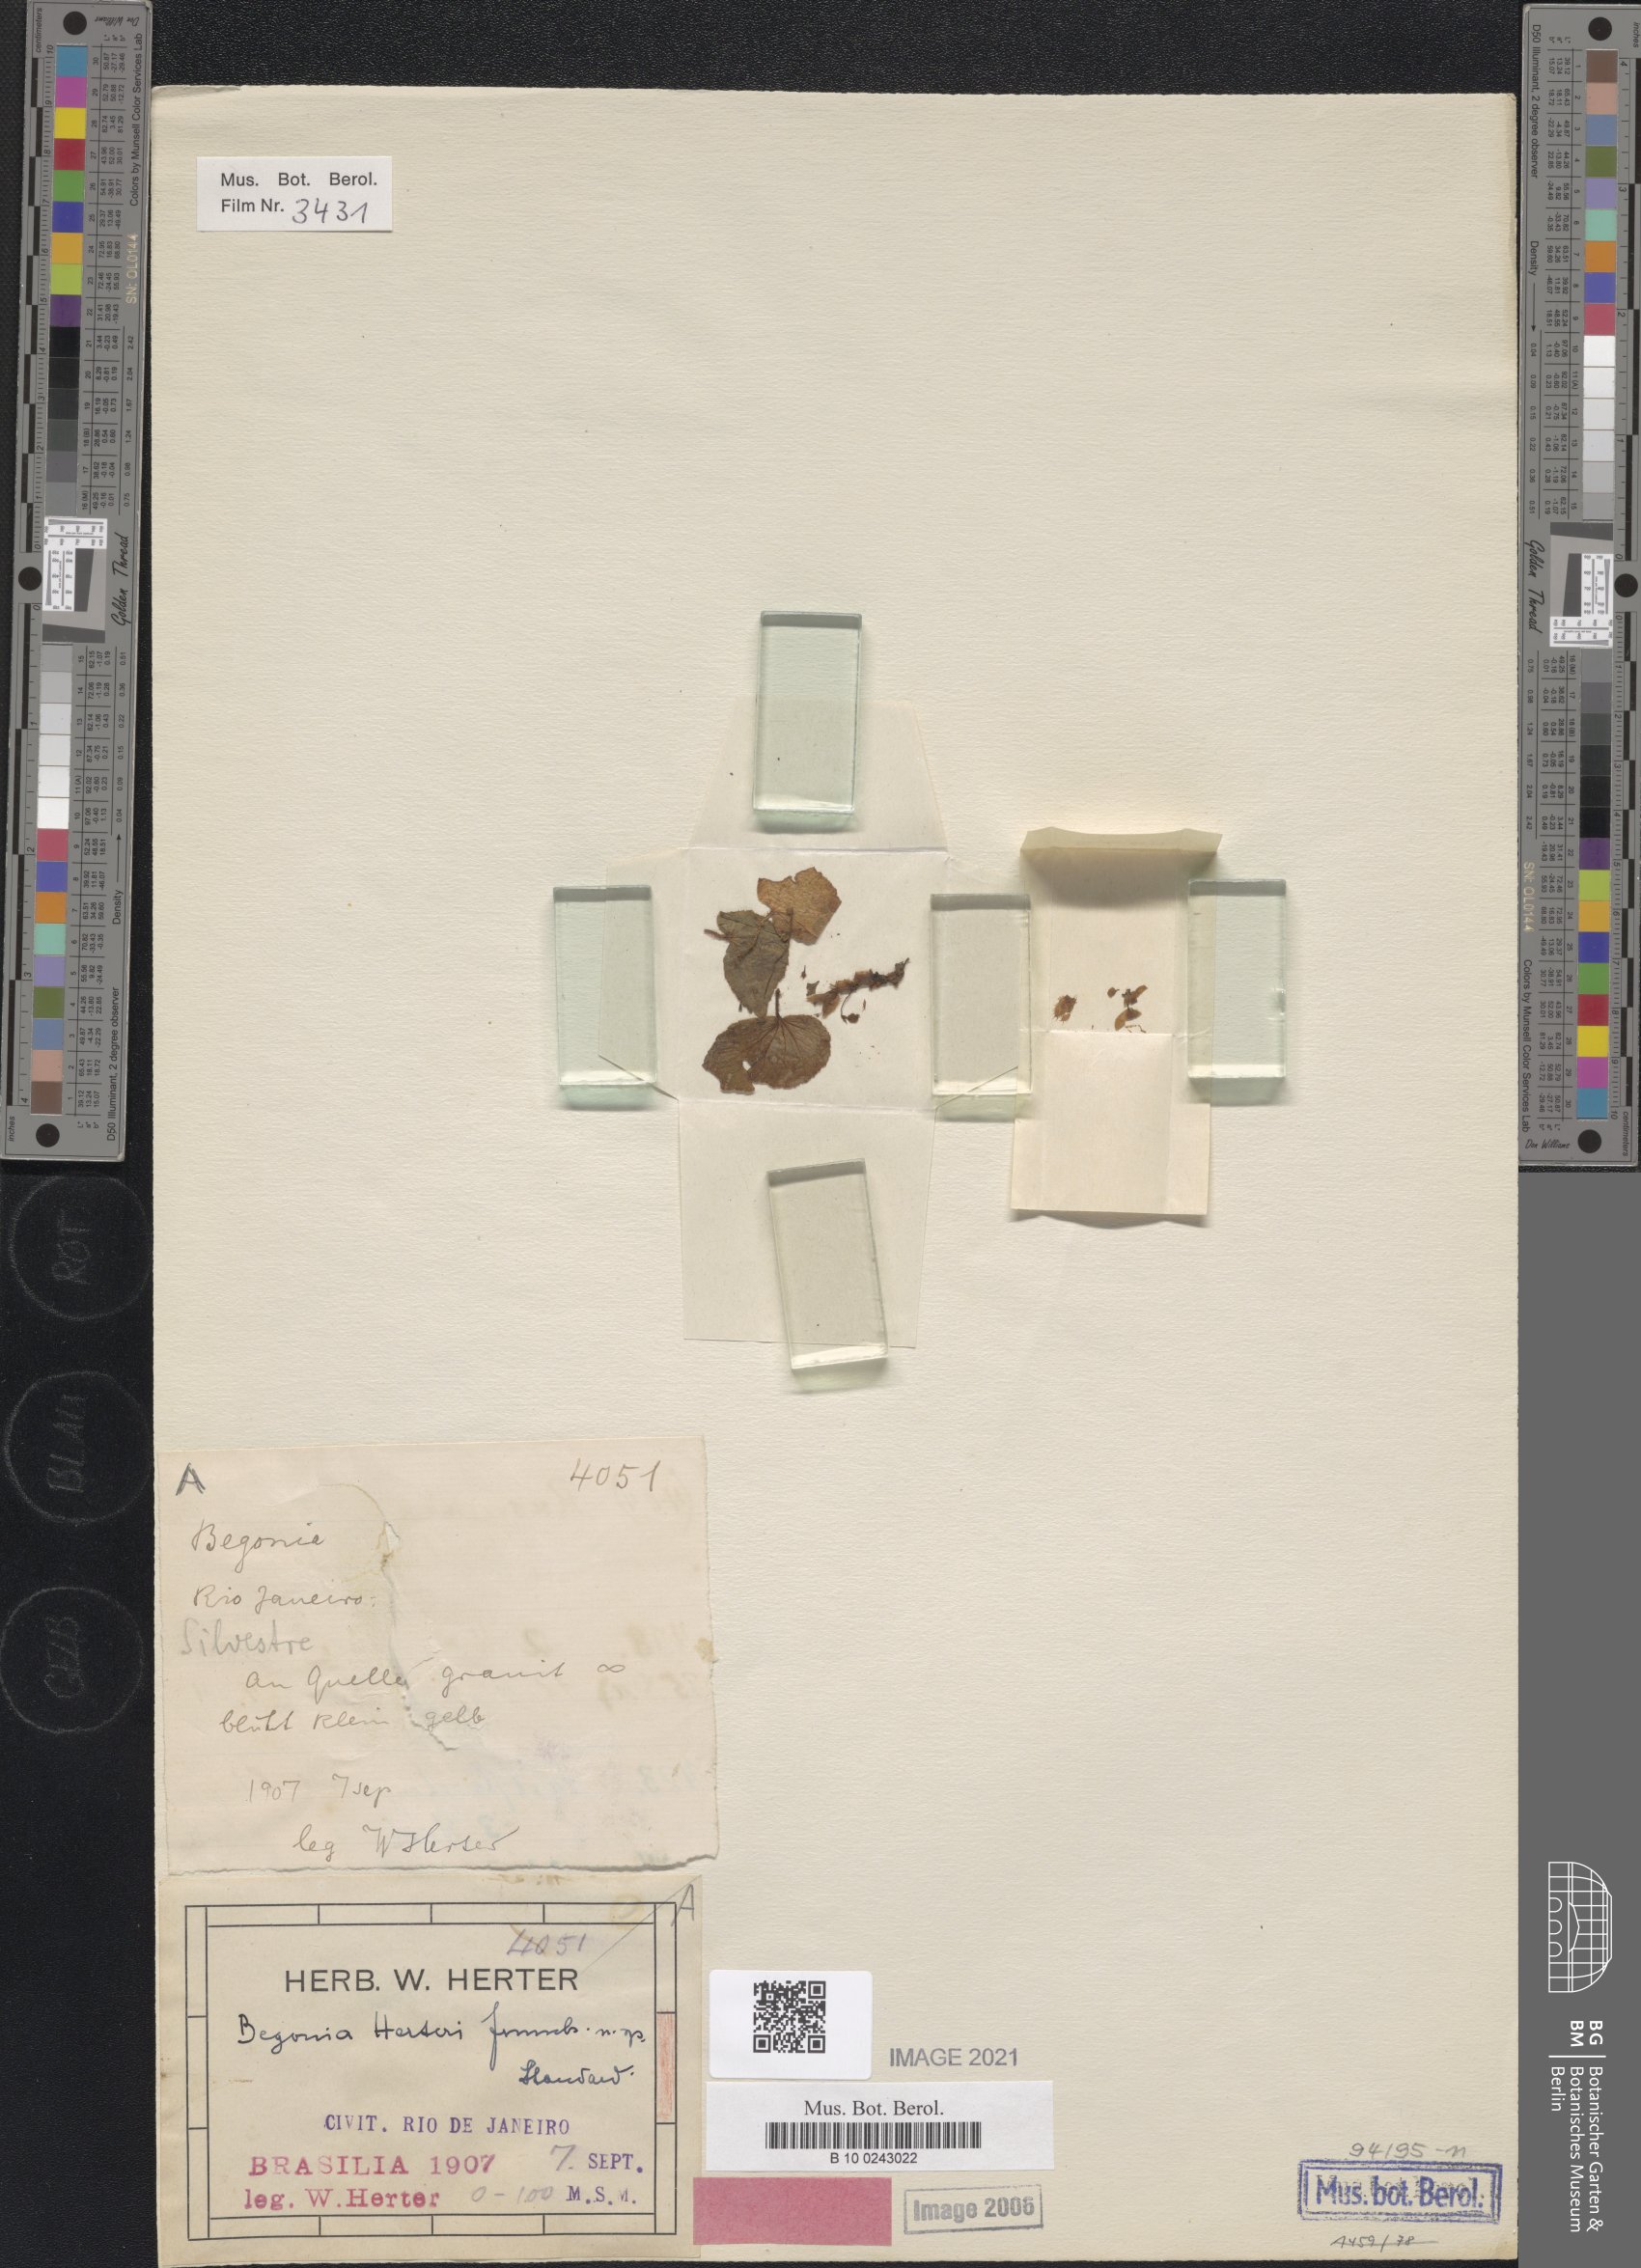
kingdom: Plantae
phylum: Tracheophyta
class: Magnoliopsida
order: Cucurbitales
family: Begoniaceae
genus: Begonia
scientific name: Begonia hirtella
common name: Brazilian begonia
